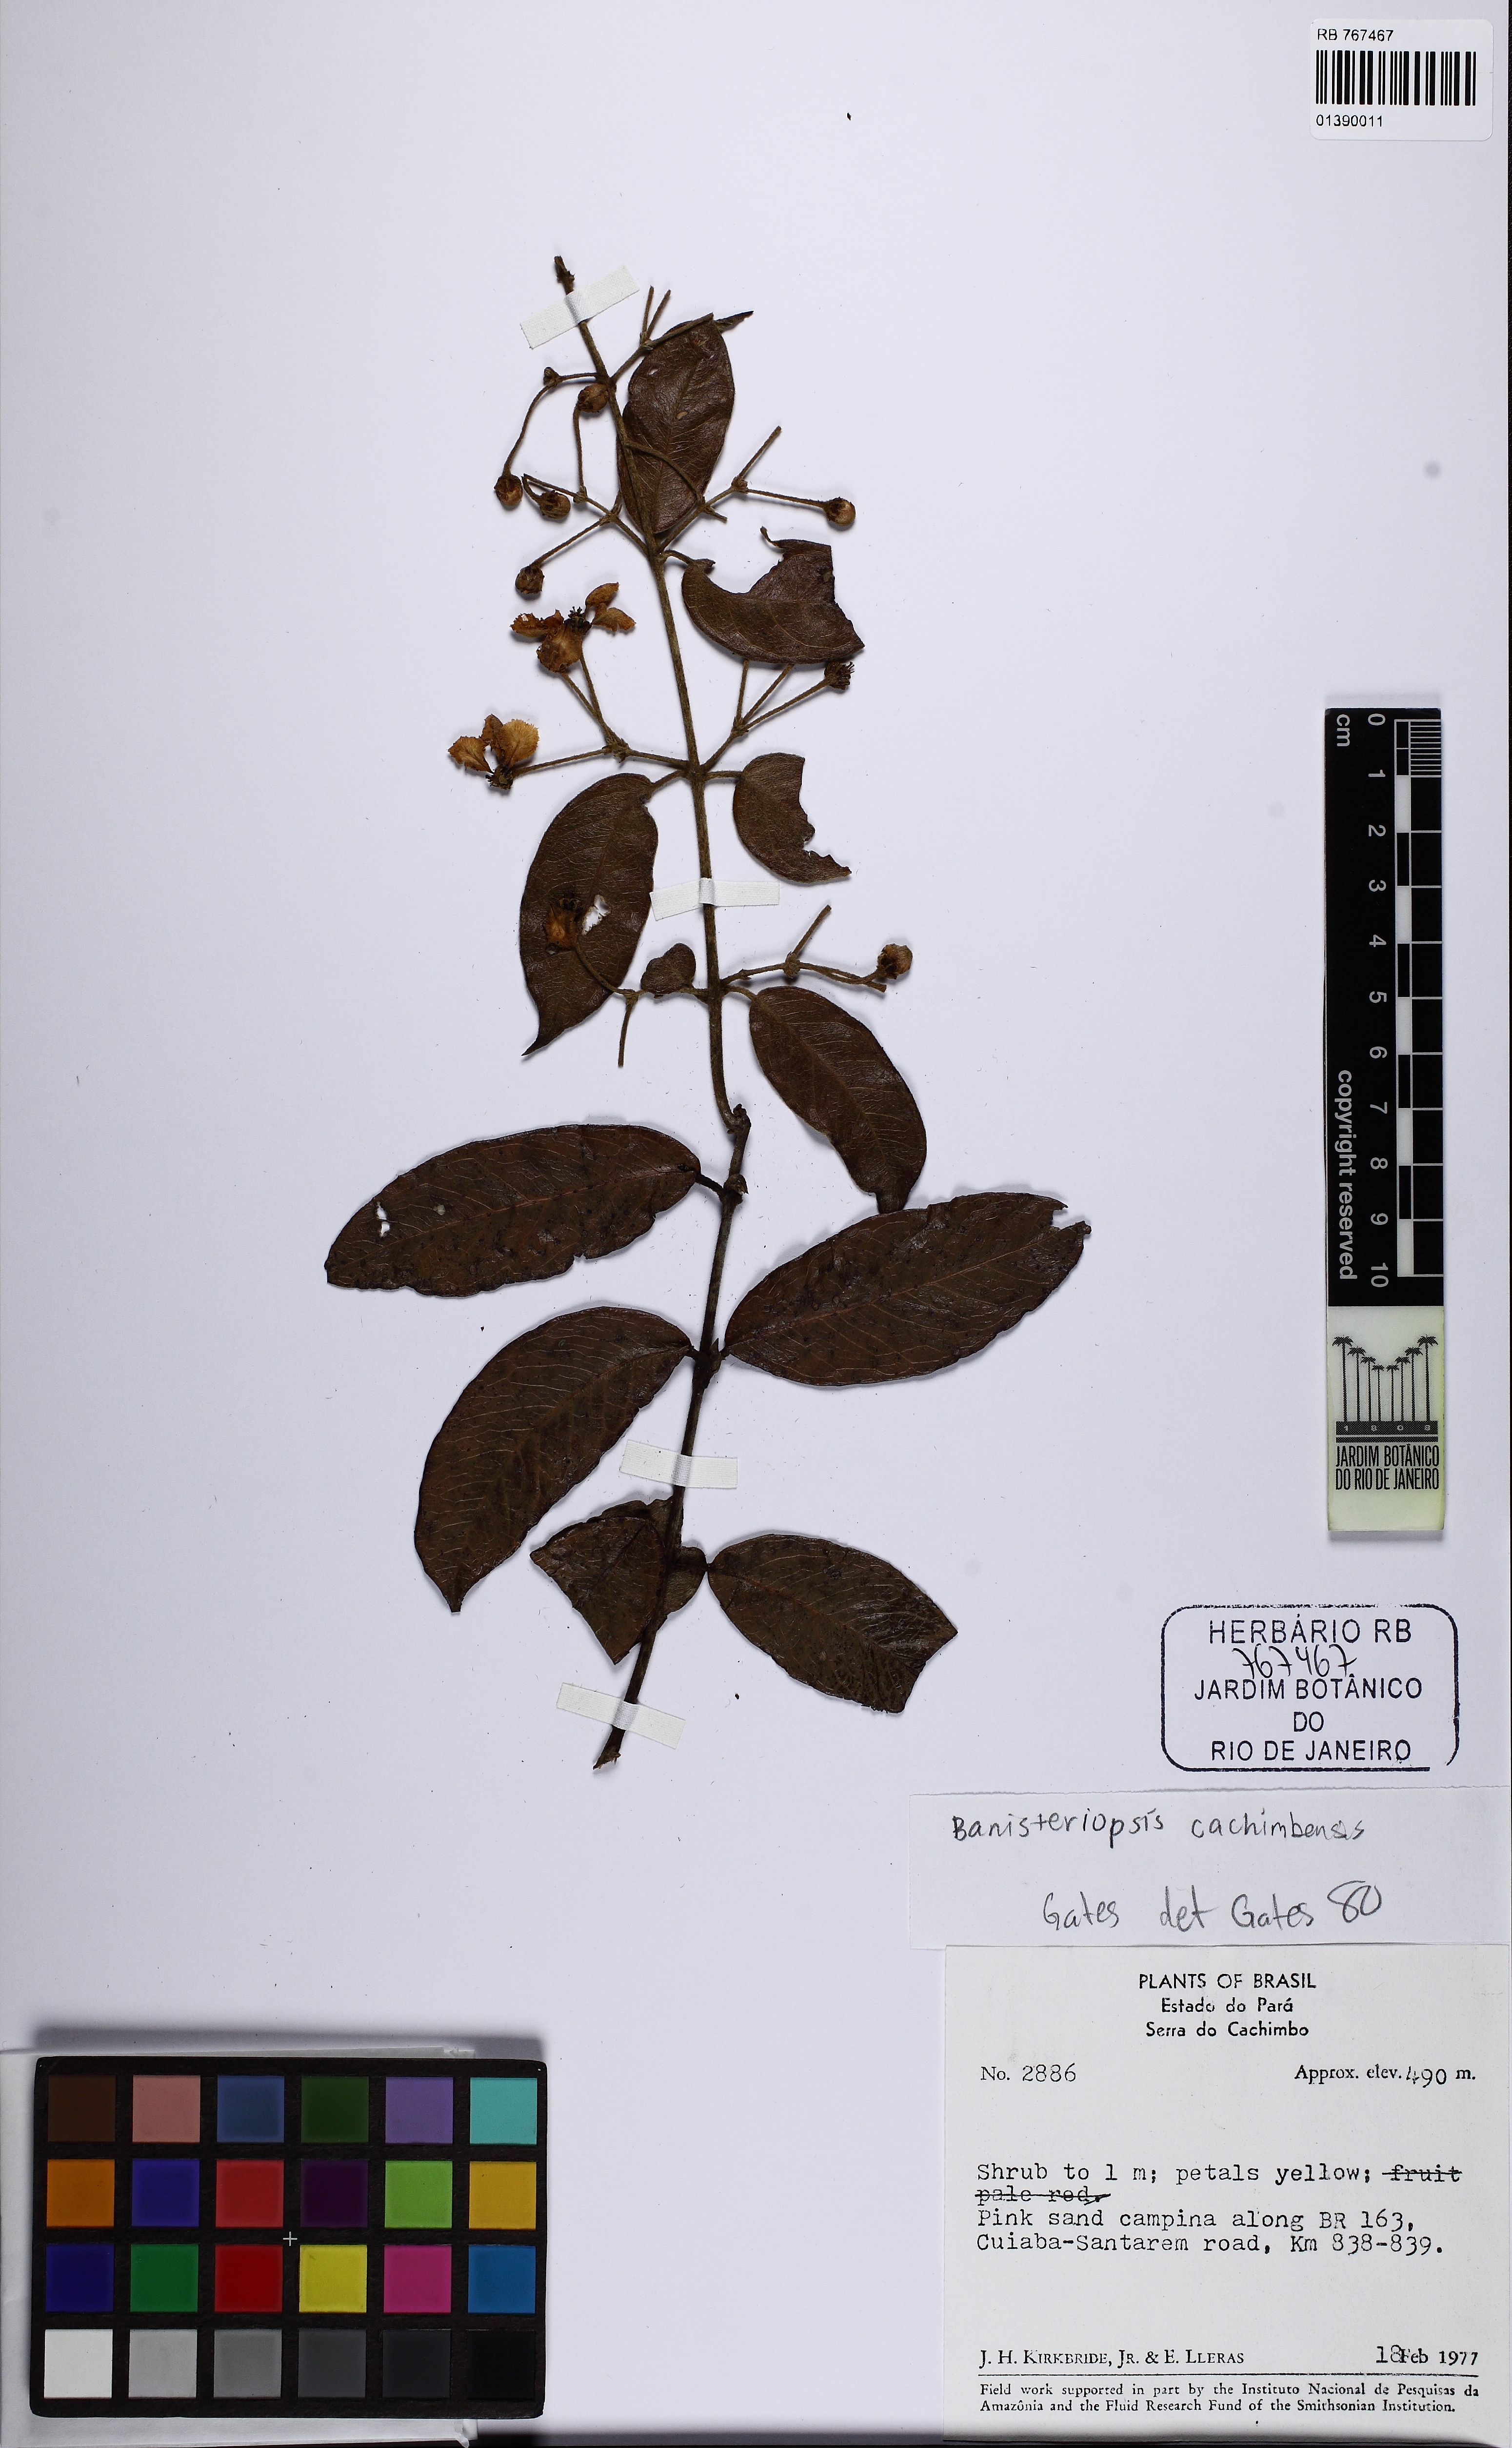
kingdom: Plantae
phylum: Tracheophyta
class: Magnoliopsida
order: Malpighiales
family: Malpighiaceae
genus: Diplopterys
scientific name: Diplopterys cachimbensis
